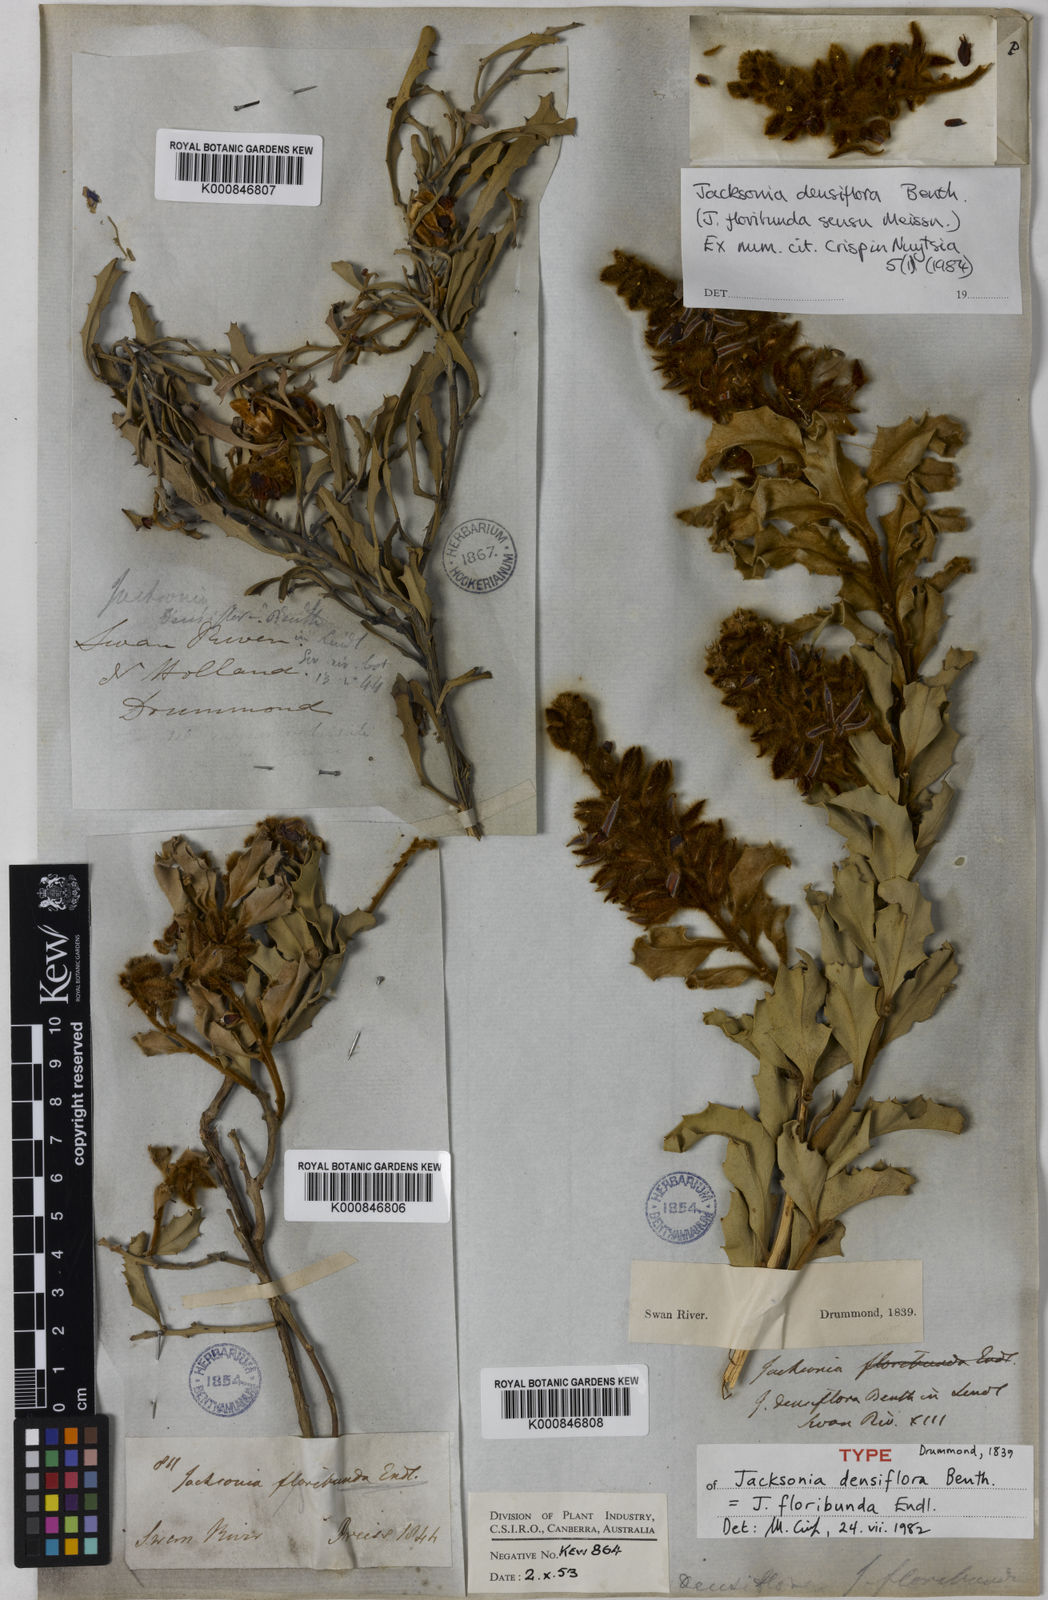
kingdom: Plantae
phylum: Tracheophyta
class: Magnoliopsida
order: Fabales
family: Fabaceae
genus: Jacksonia
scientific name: Jacksonia floribunda
